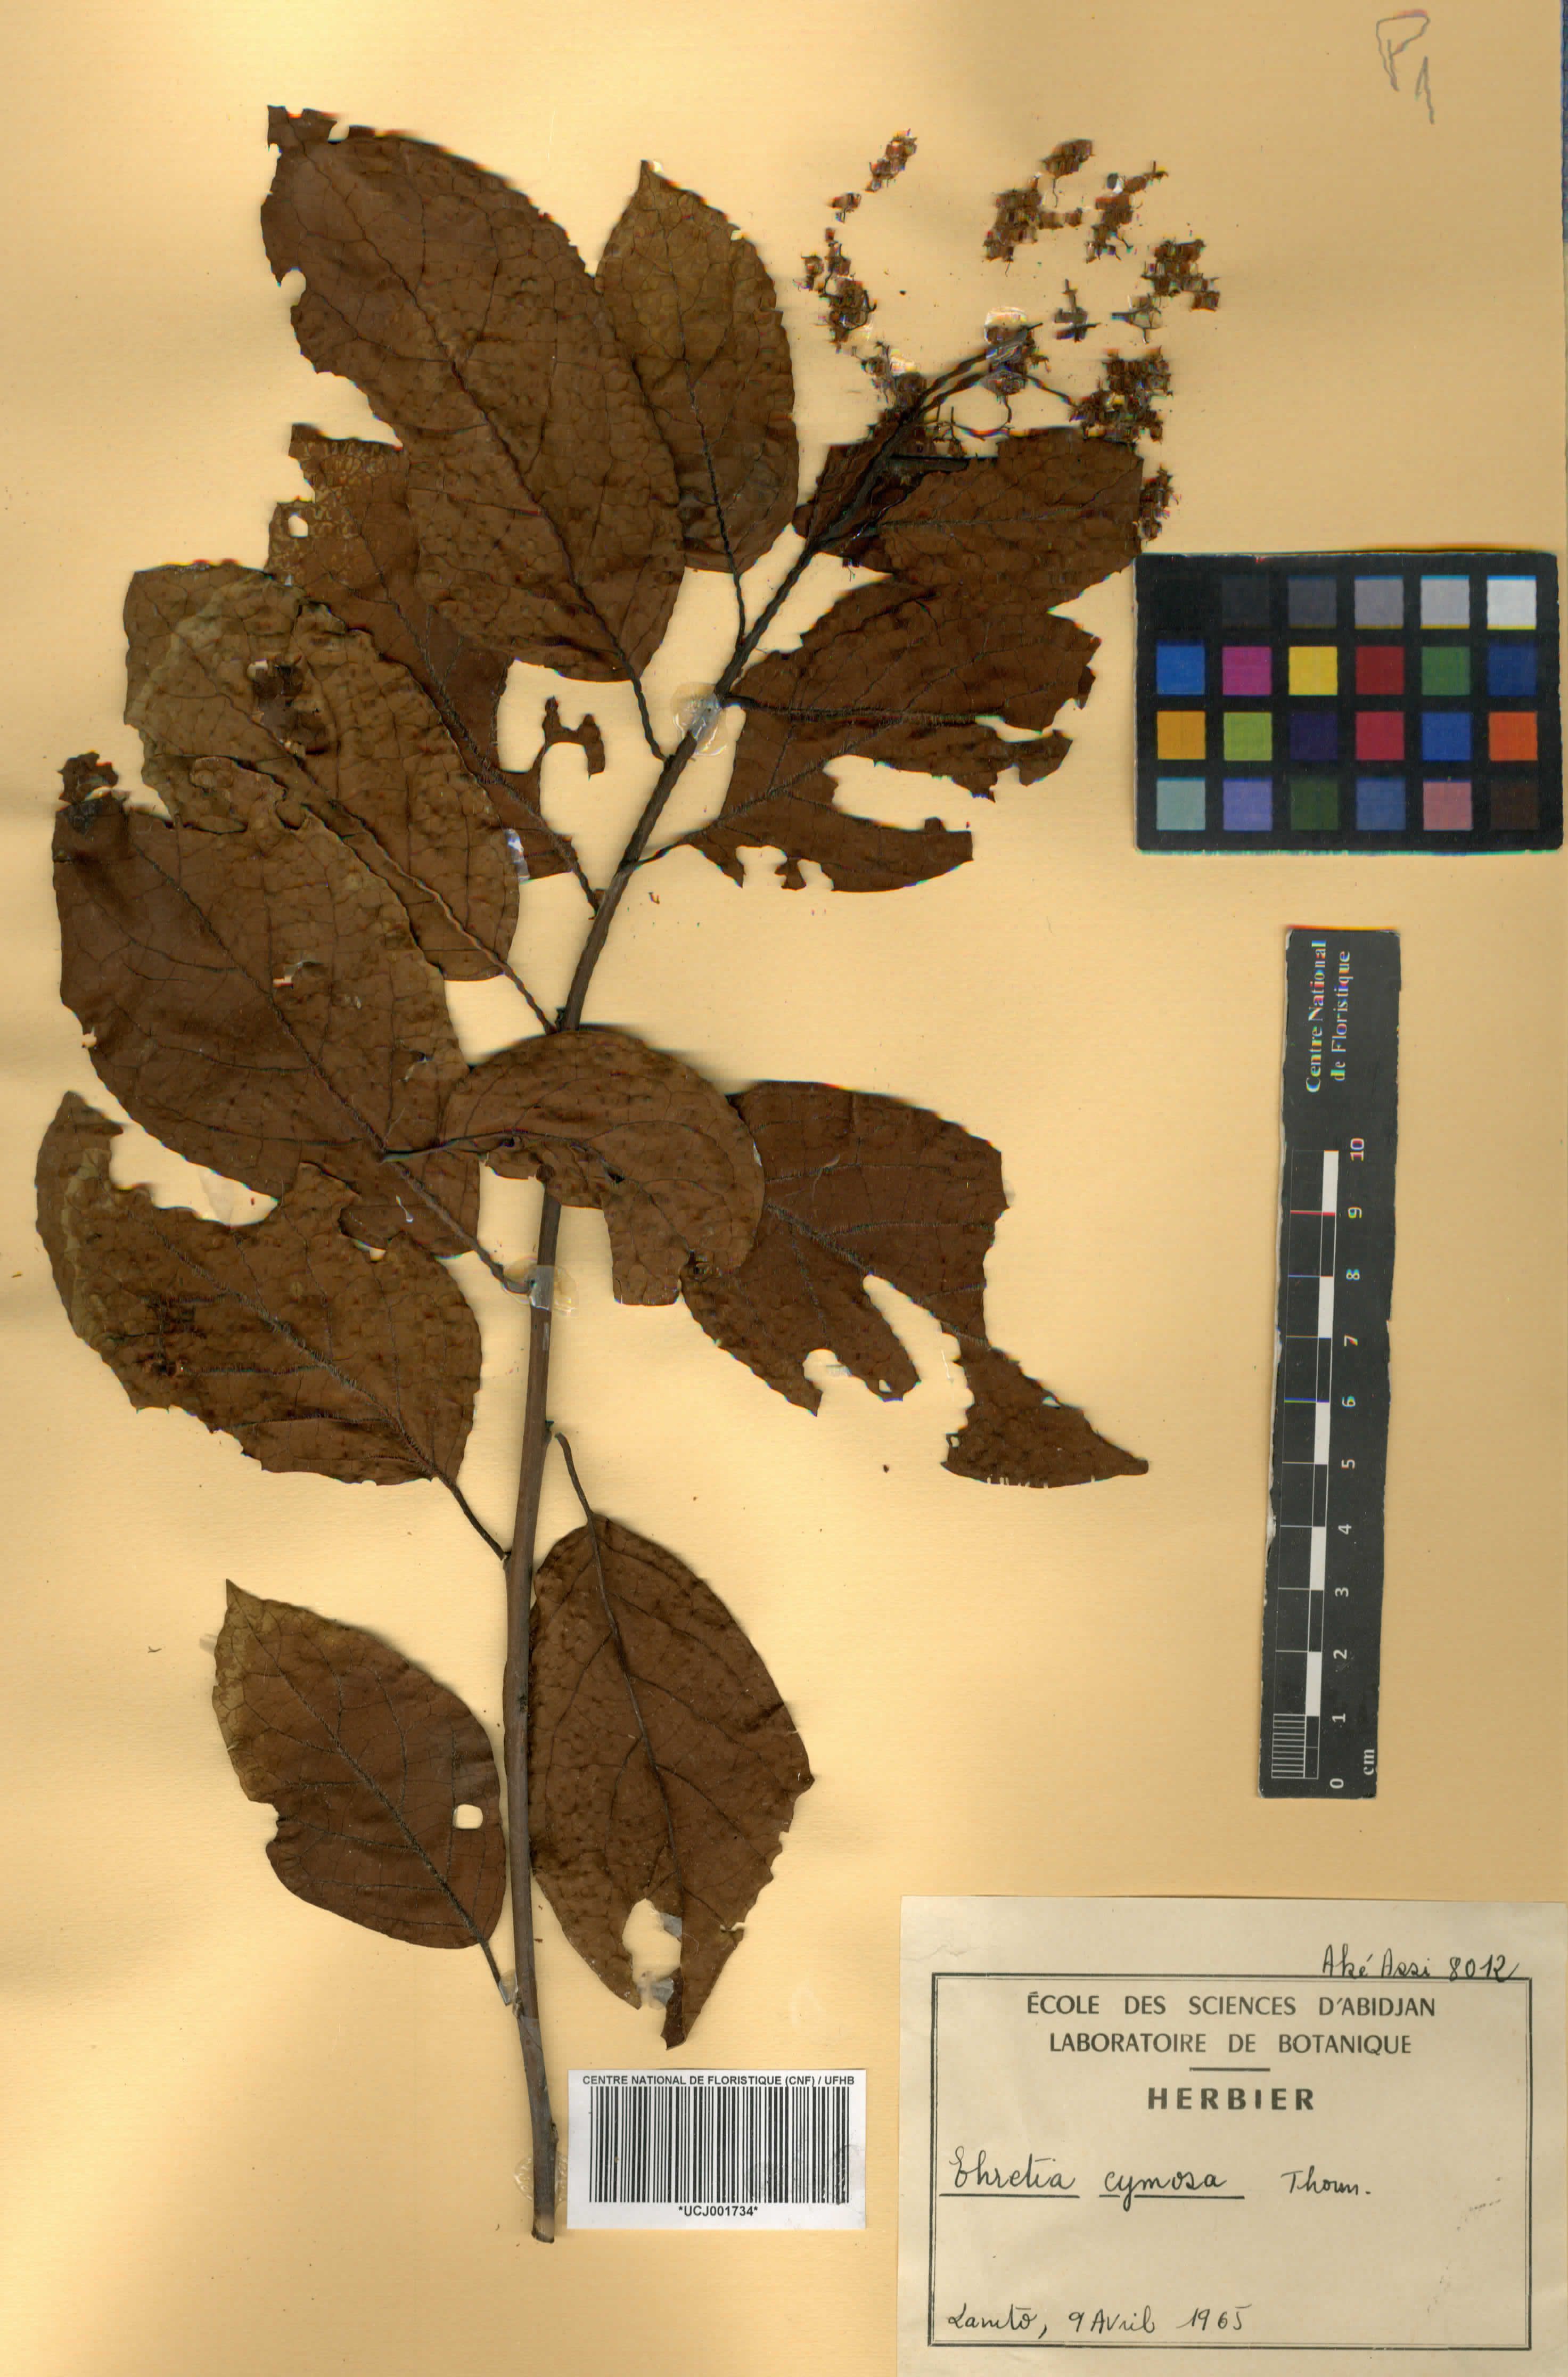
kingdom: Plantae
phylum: Tracheophyta
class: Magnoliopsida
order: Boraginales
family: Ehretiaceae
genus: Ehretia
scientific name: Ehretia cymosa
